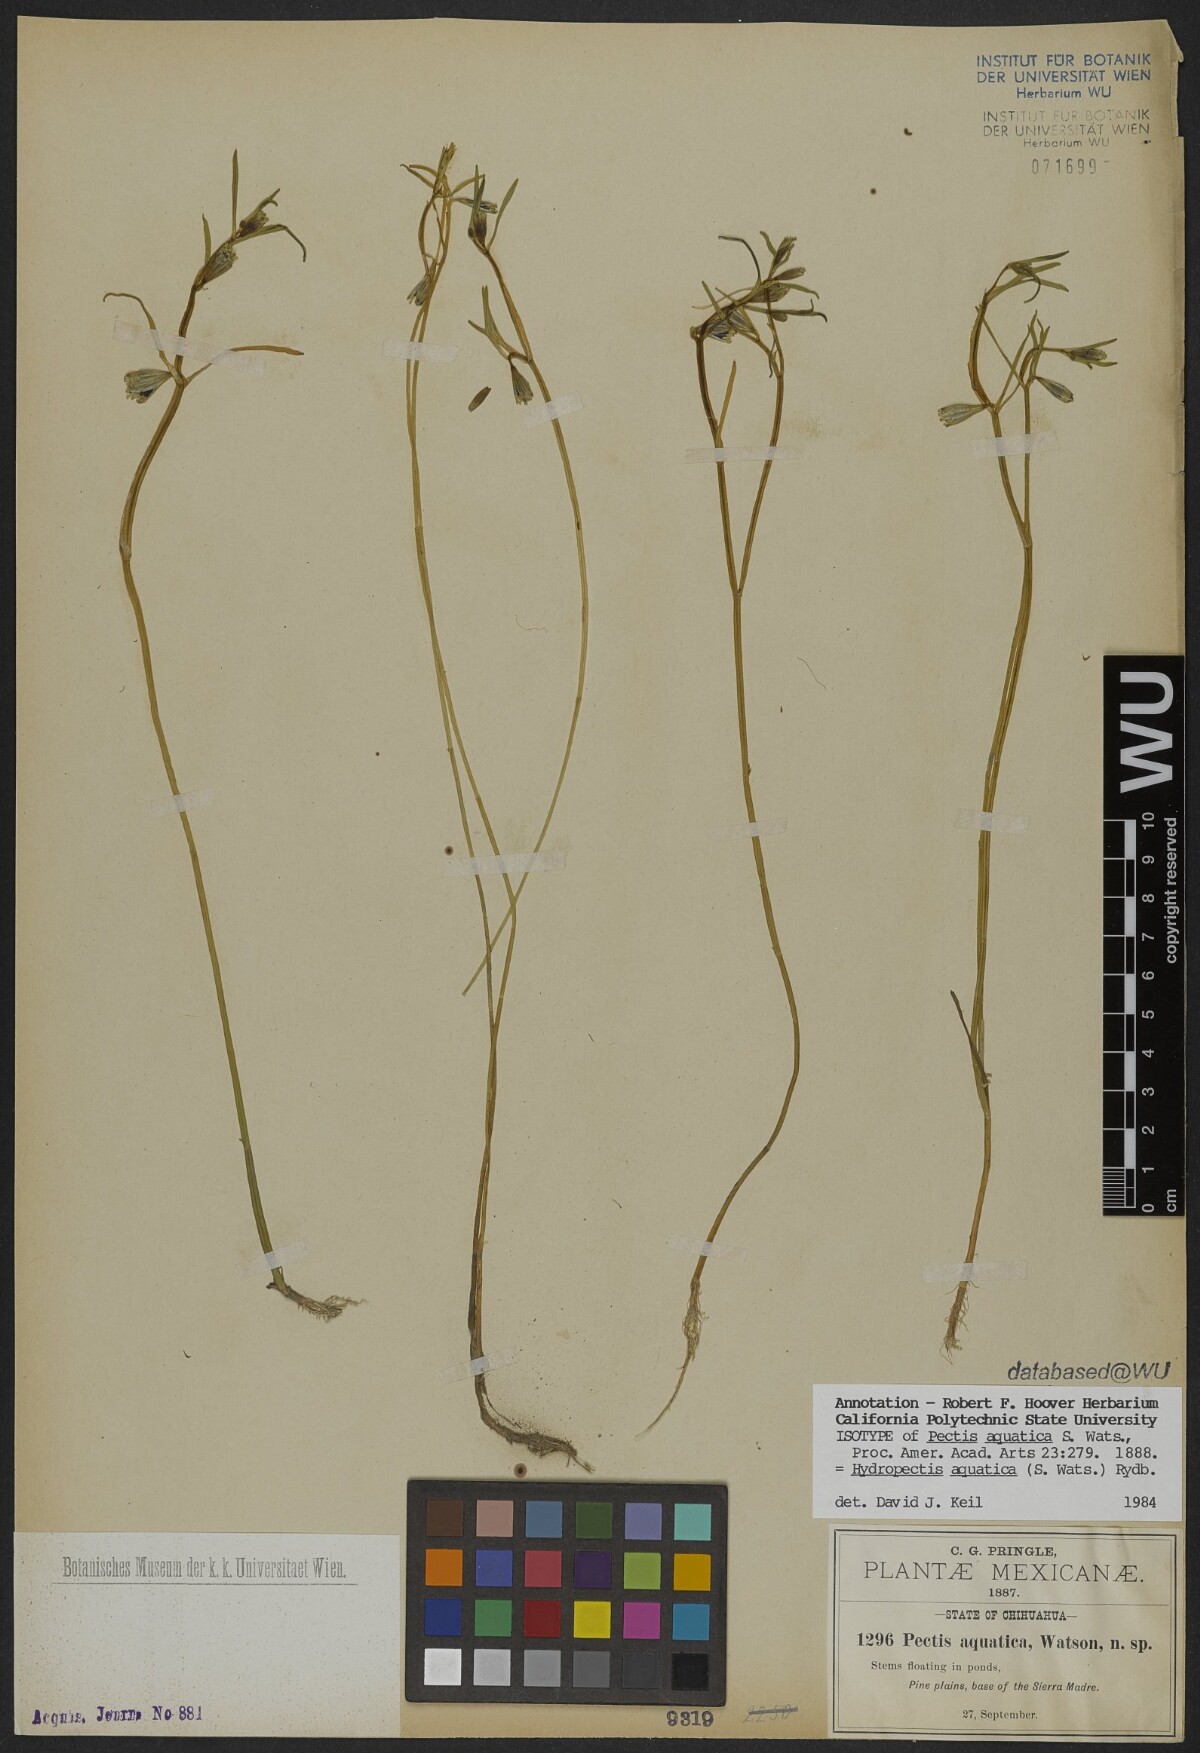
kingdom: Plantae
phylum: Tracheophyta
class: Magnoliopsida
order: Asterales
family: Asteraceae
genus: Hydropectis
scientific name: Hydropectis aquatica
